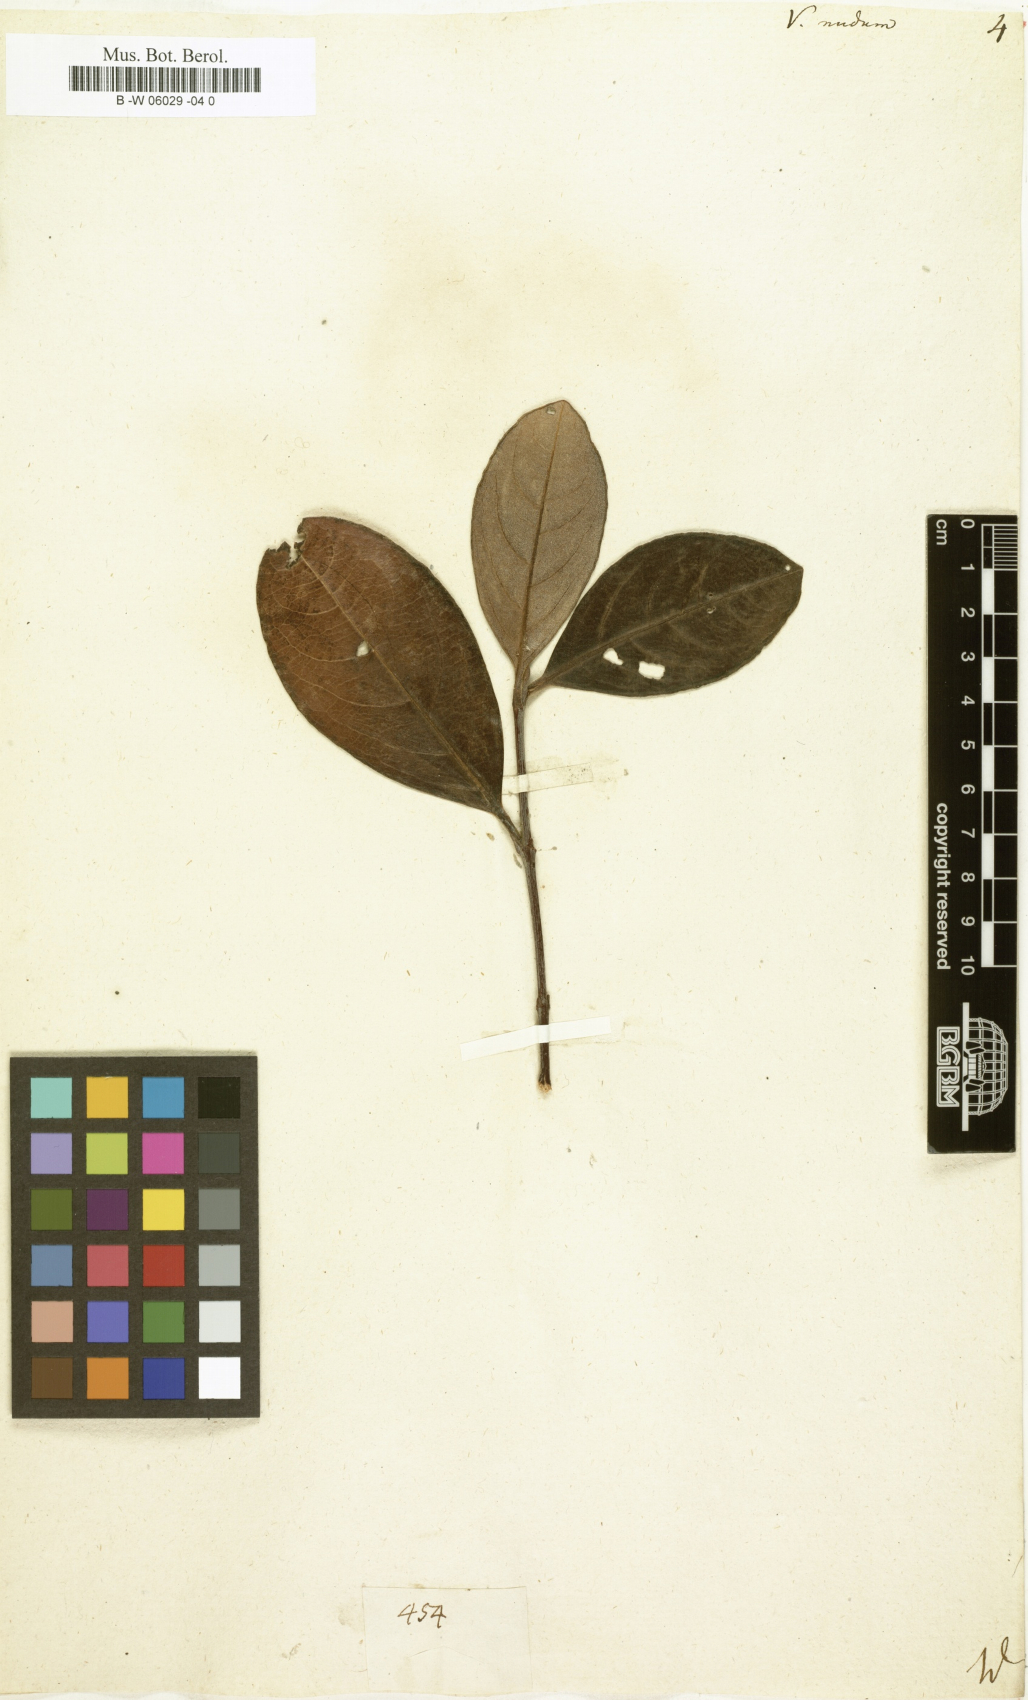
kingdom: Plantae
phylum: Tracheophyta
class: Magnoliopsida
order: Dipsacales
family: Viburnaceae
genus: Viburnum
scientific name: Viburnum nudum
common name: Possum haw
